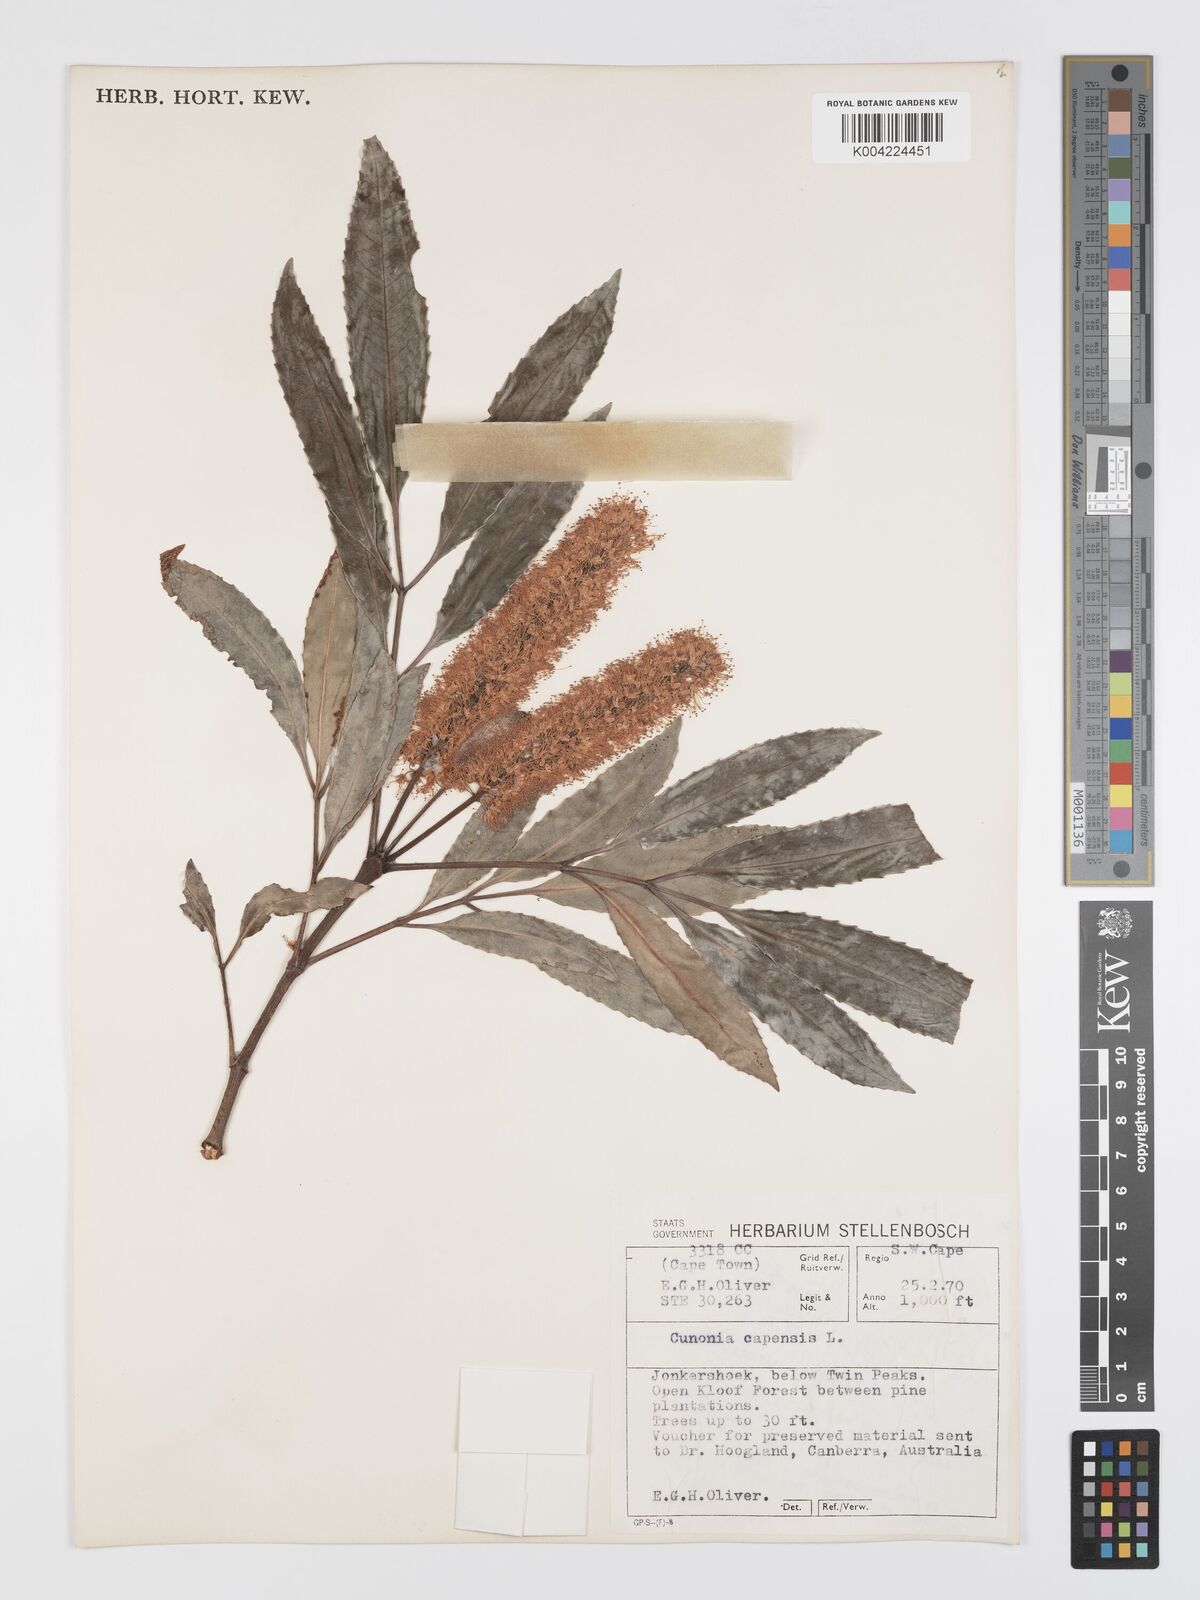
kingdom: Plantae
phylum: Tracheophyta
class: Magnoliopsida
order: Oxalidales
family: Cunoniaceae
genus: Cunonia
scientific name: Cunonia capensis
